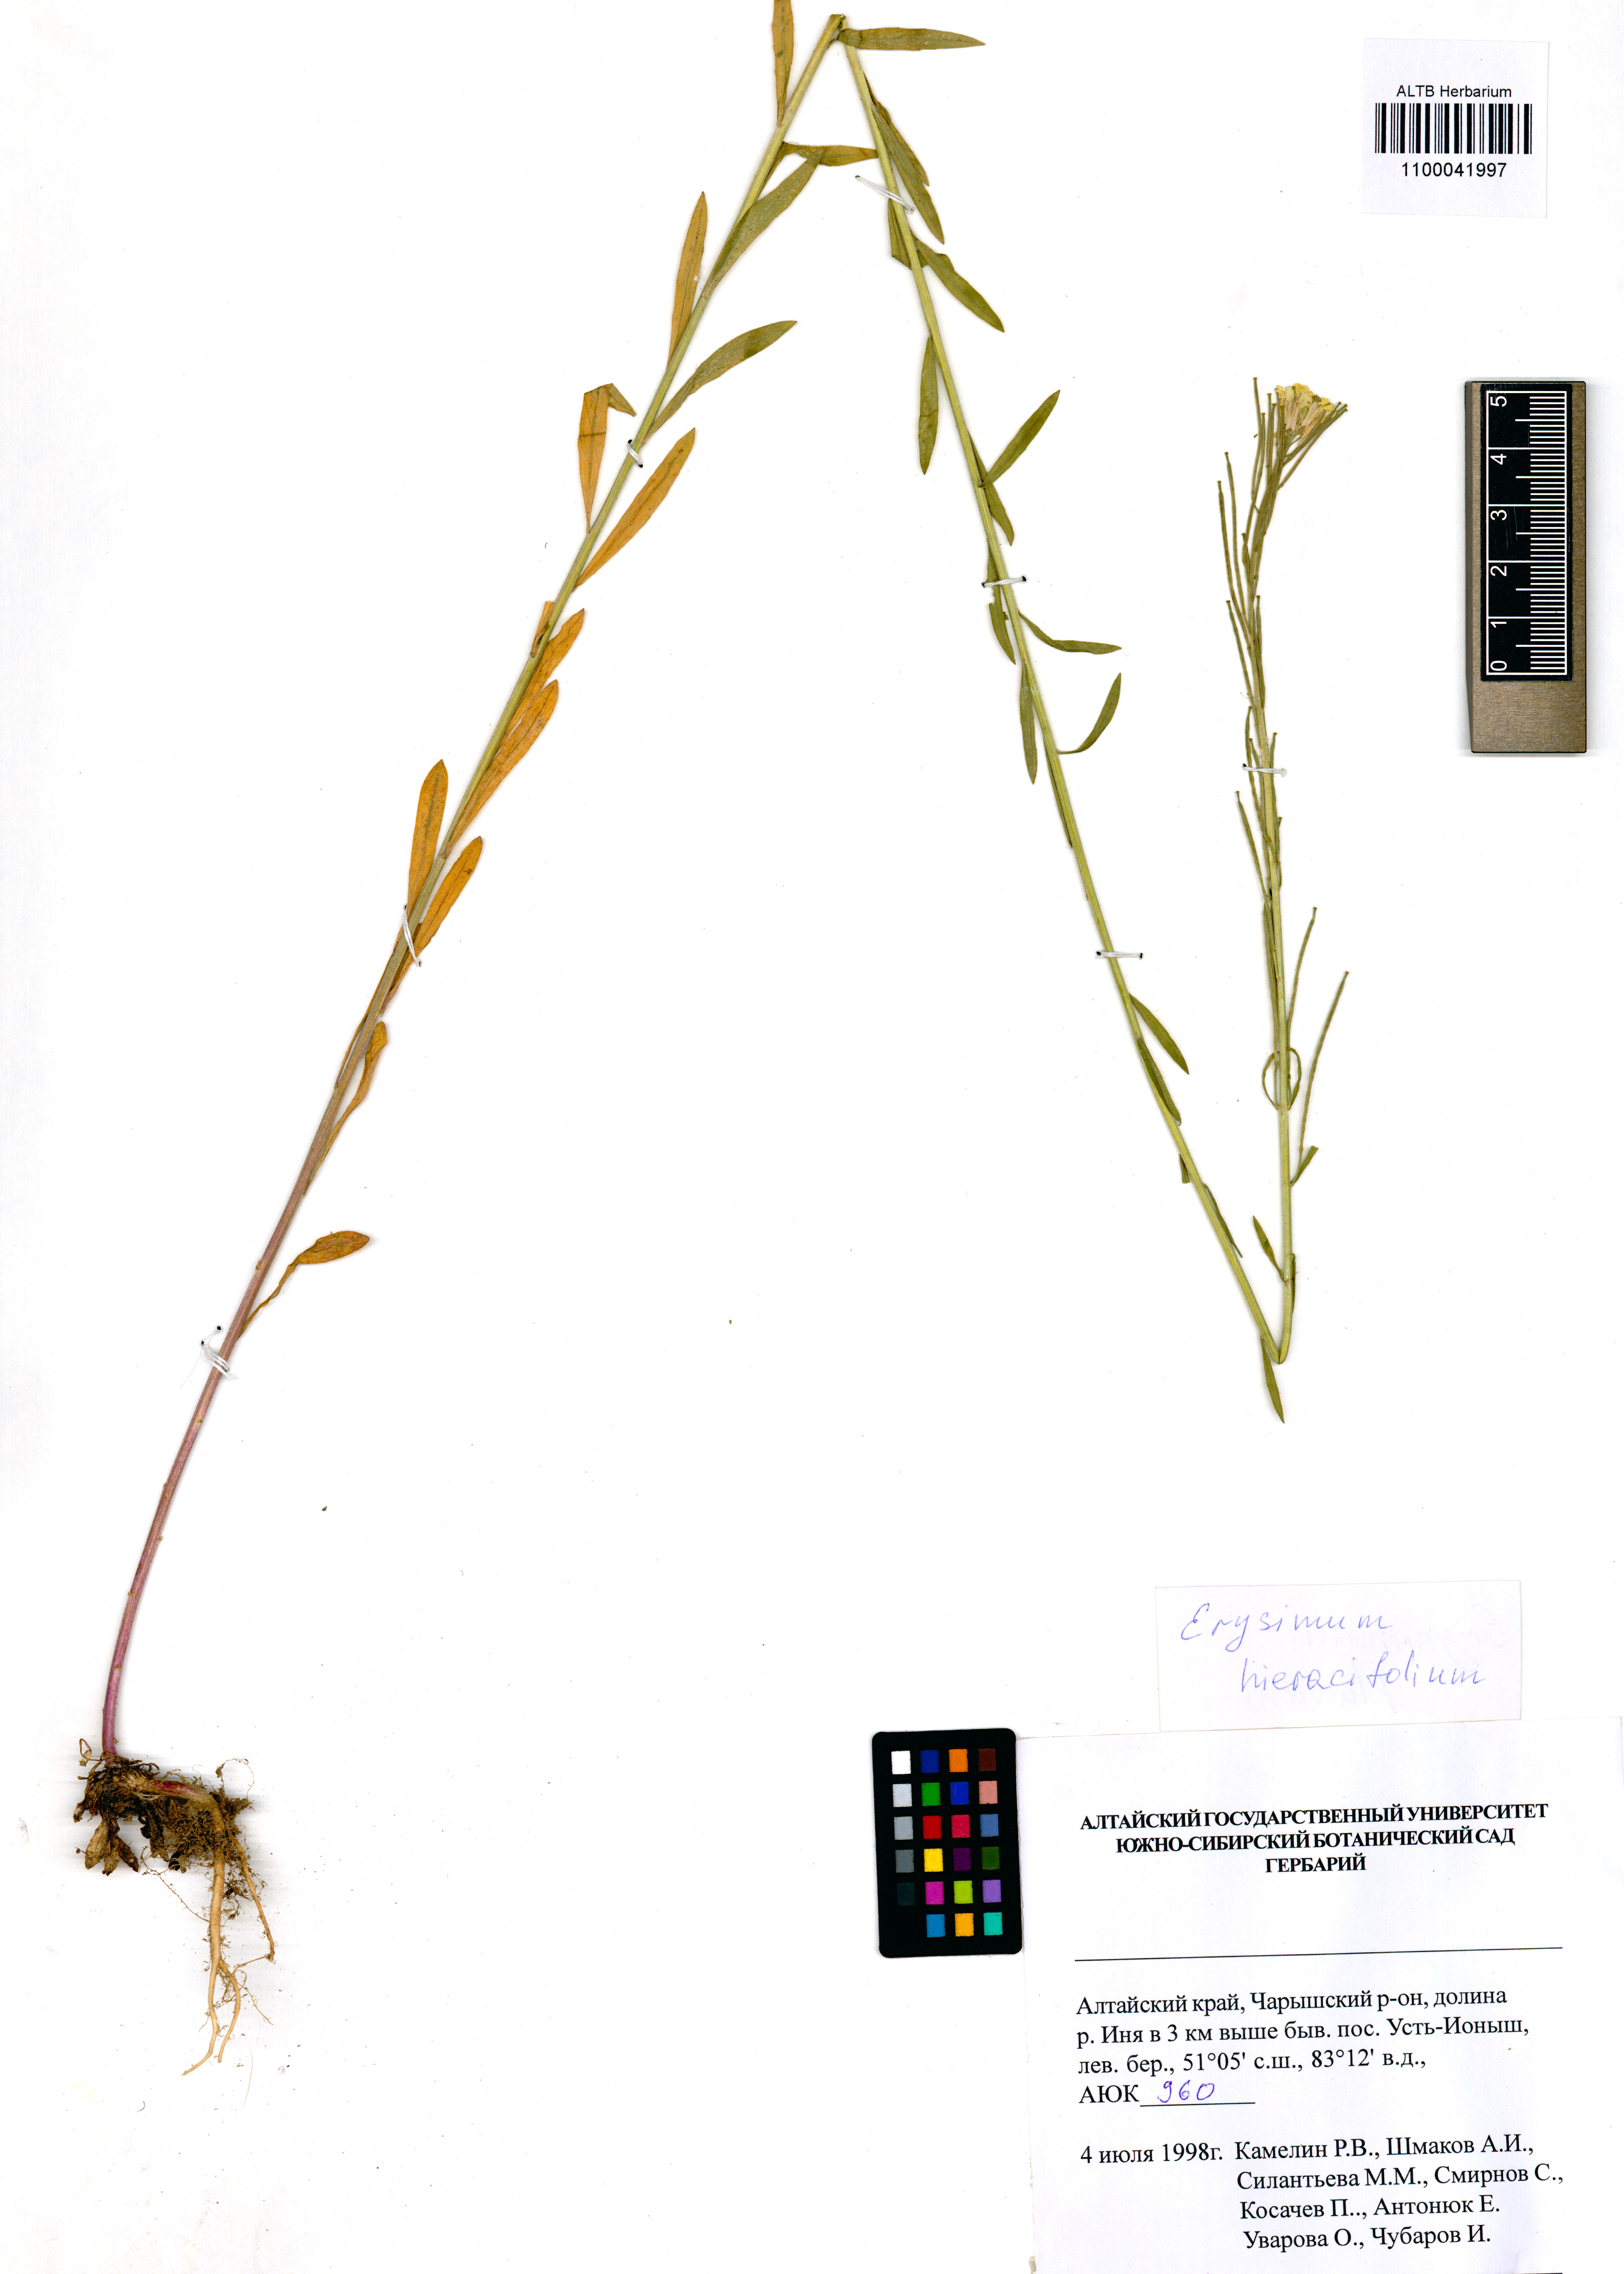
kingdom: Plantae
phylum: Tracheophyta
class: Magnoliopsida
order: Brassicales
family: Brassicaceae
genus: Erysimum
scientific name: Erysimum hieraciifolium
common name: European wallflower
